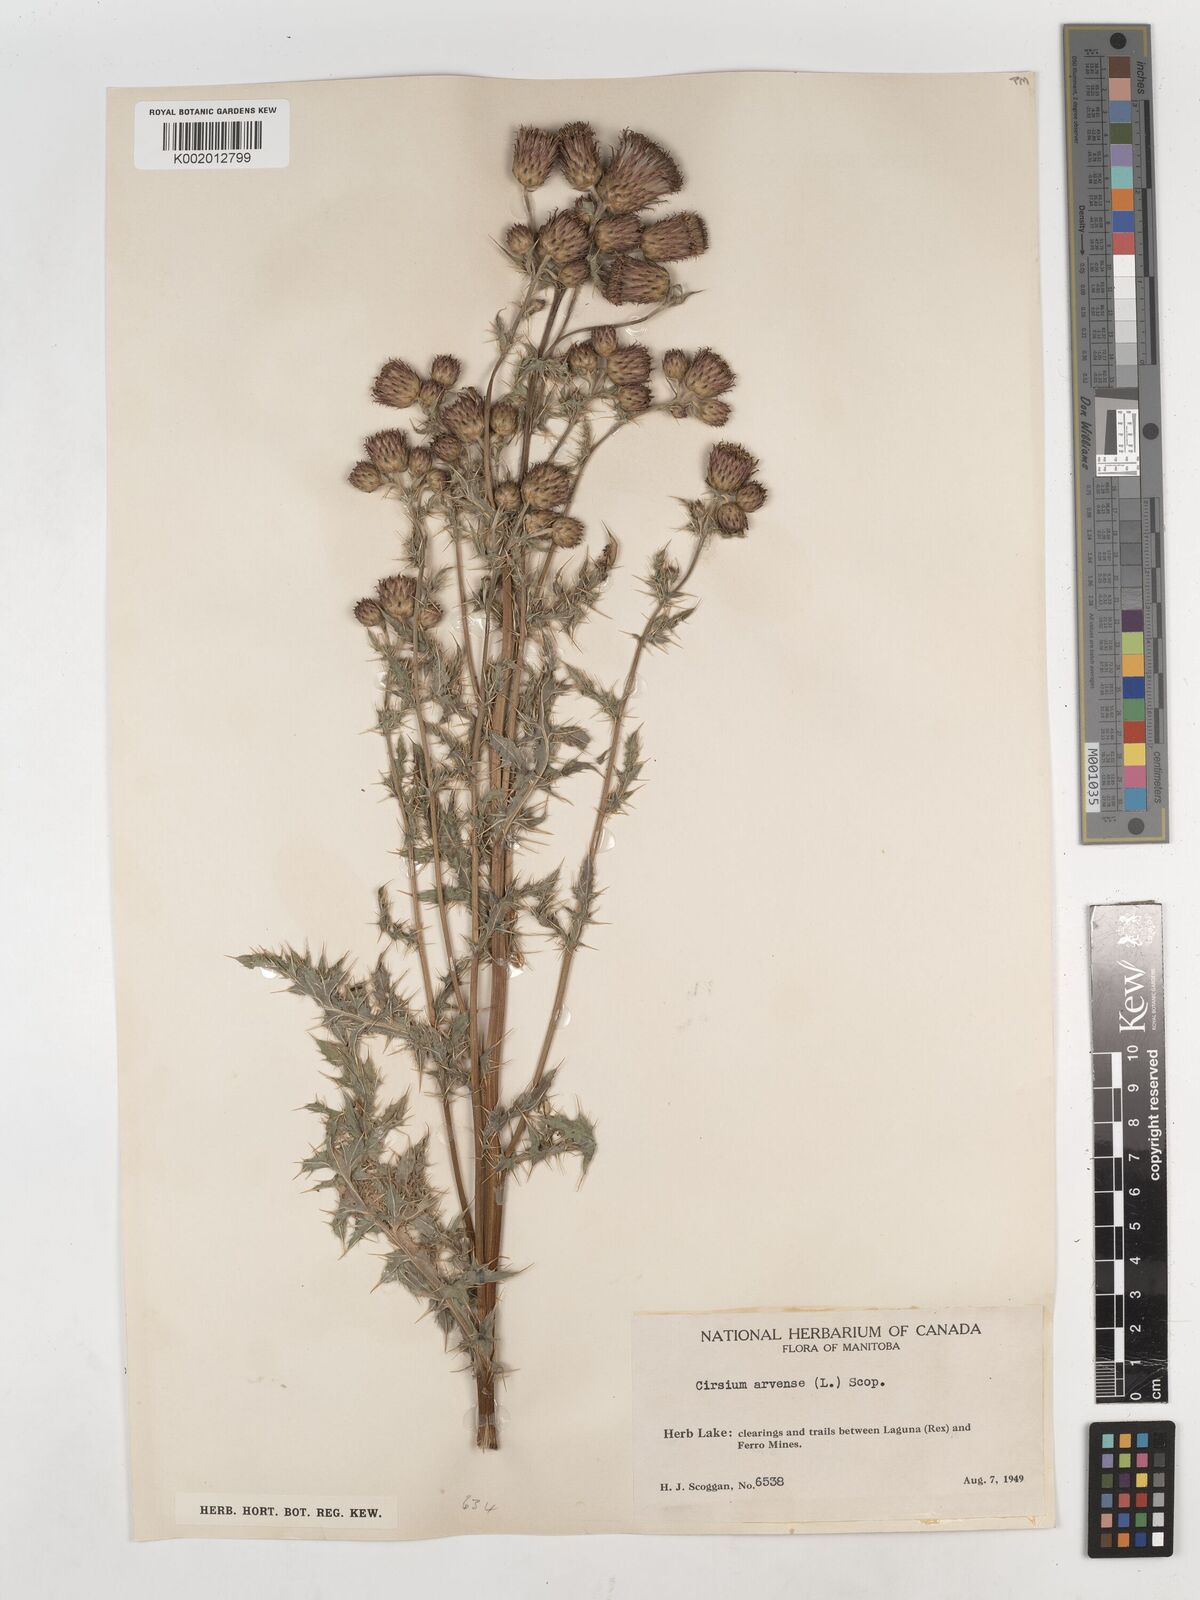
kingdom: Plantae
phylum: Tracheophyta
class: Magnoliopsida
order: Asterales
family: Asteraceae
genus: Cirsium
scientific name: Cirsium arvense
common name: Creeping thistle
